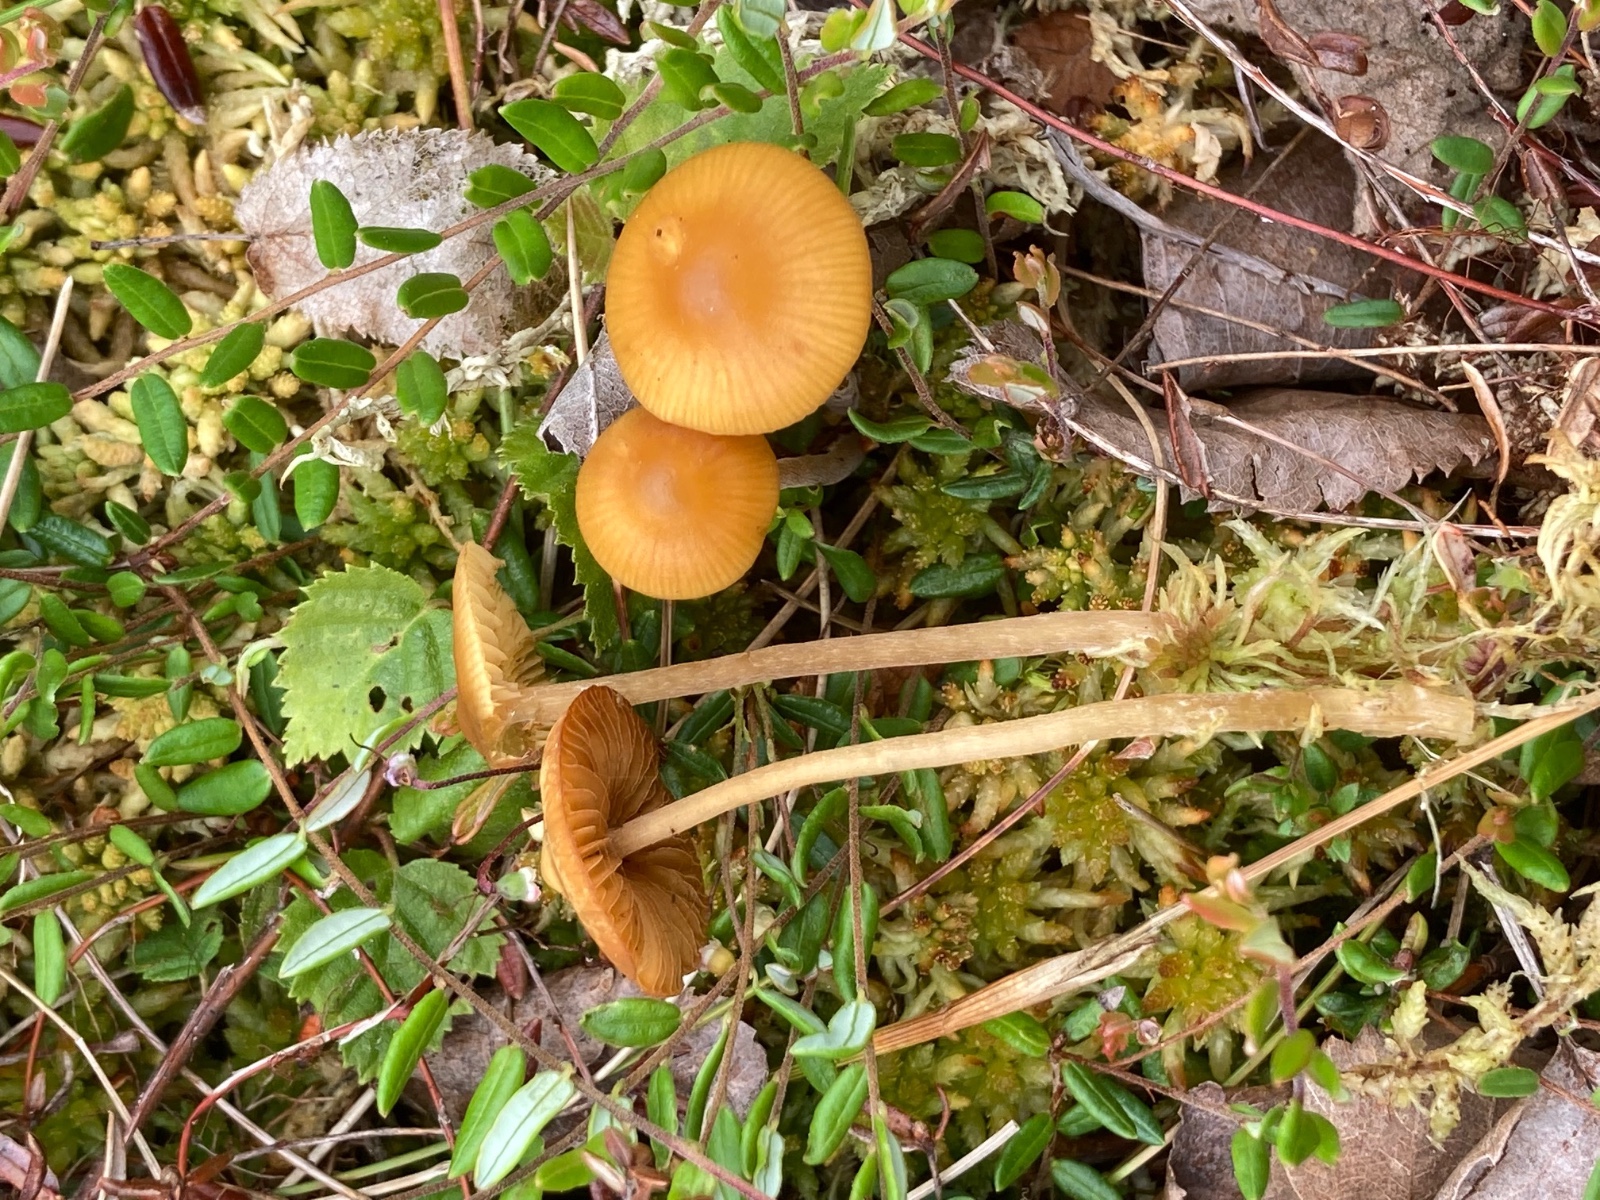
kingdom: Fungi
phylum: Basidiomycota
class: Agaricomycetes
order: Agaricales
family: Hymenogastraceae
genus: Galerina
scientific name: Galerina hybrida
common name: hængesæk-hjelmhat
